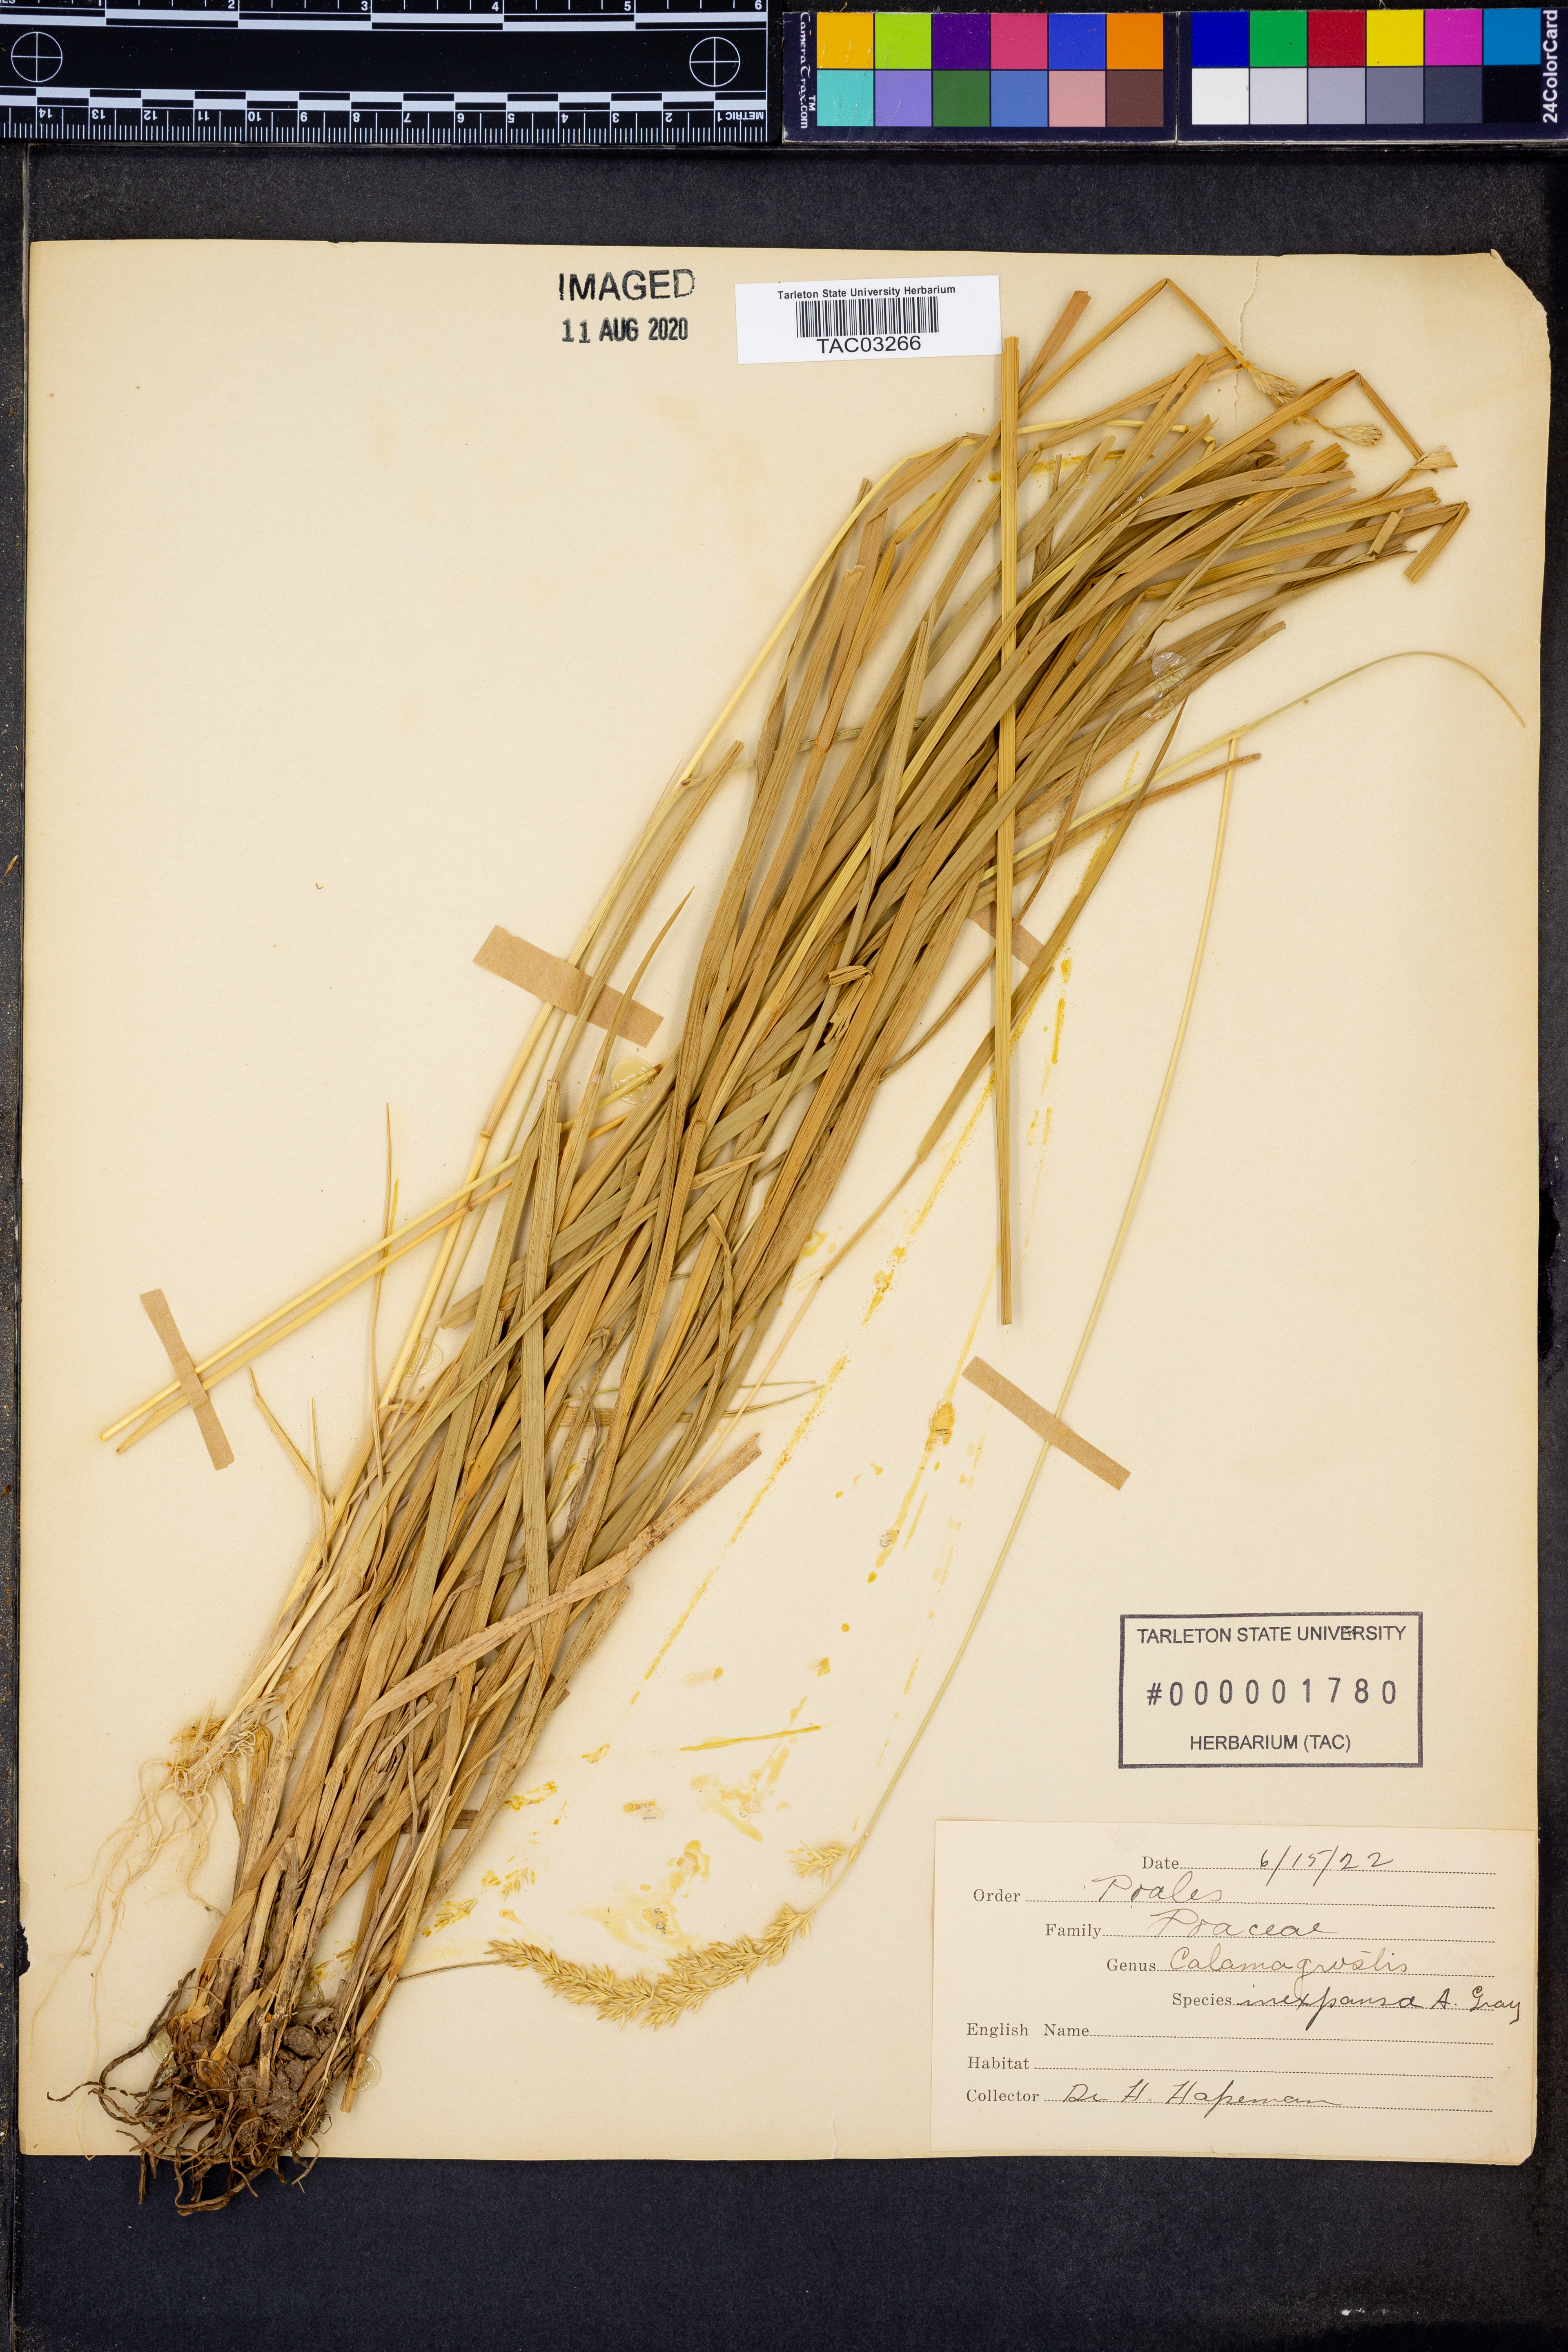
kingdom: Plantae
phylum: Tracheophyta
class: Liliopsida
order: Poales
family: Poaceae
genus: Calamagrostis
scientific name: Calamagrostis canadensis
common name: Canada bluejoint
